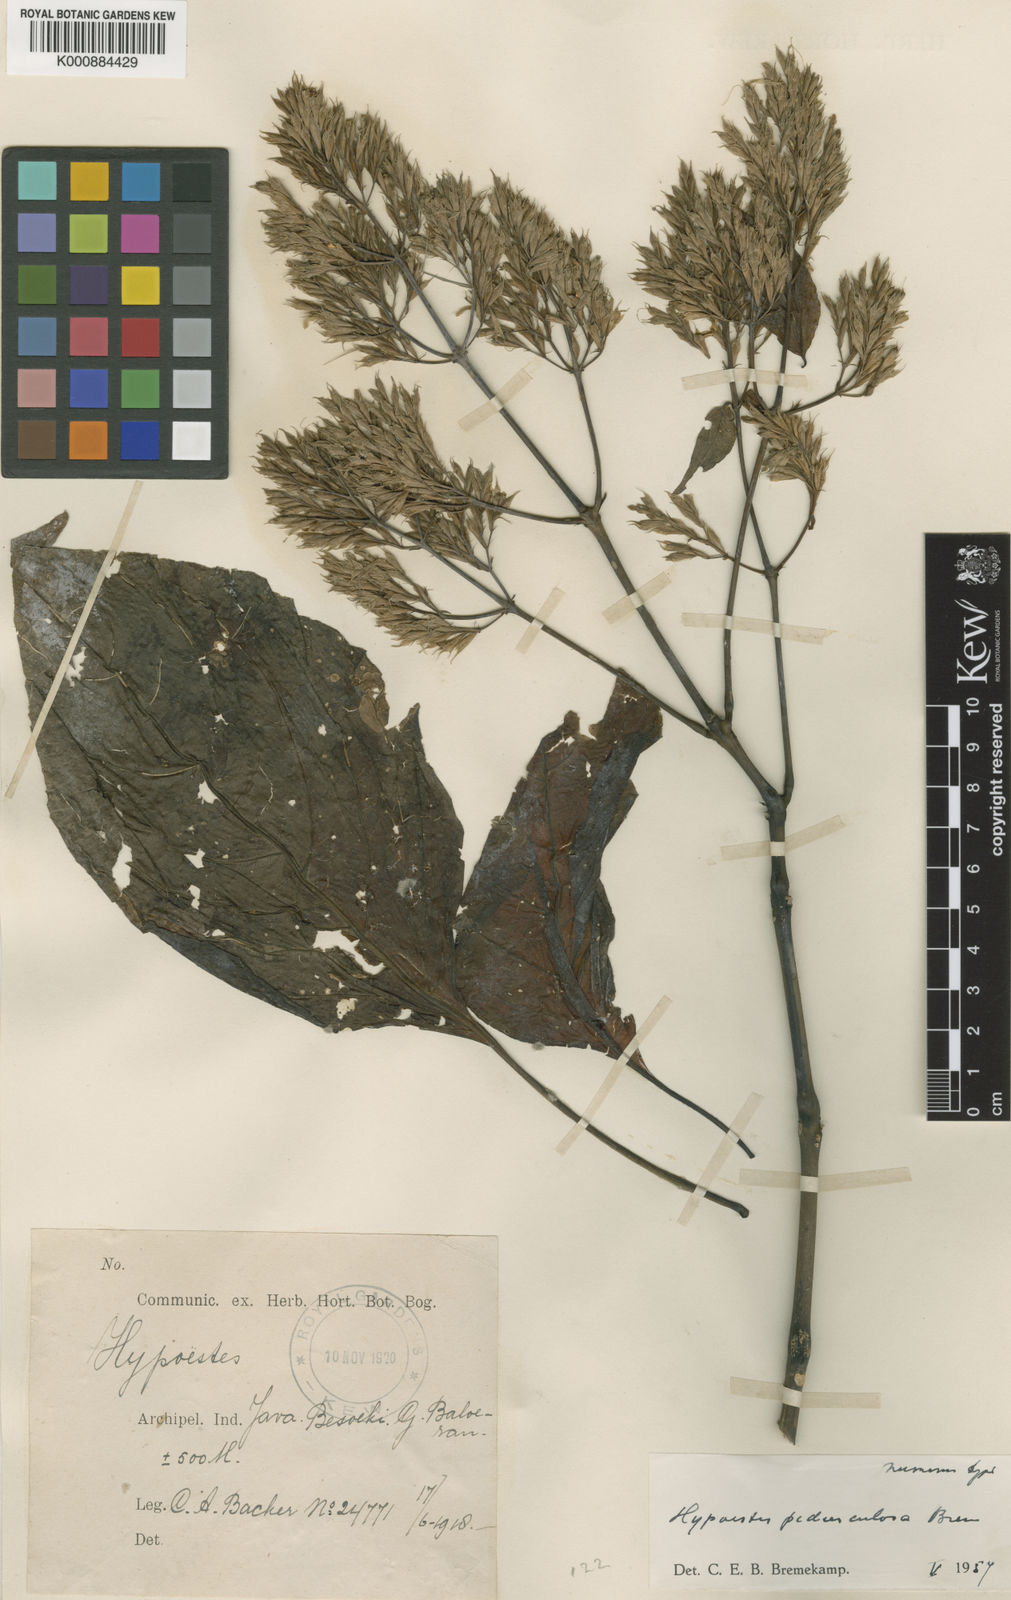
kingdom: Plantae
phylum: Tracheophyta
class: Magnoliopsida
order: Lamiales
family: Acanthaceae
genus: Hypoestes
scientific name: Hypoestes pedunculosa
